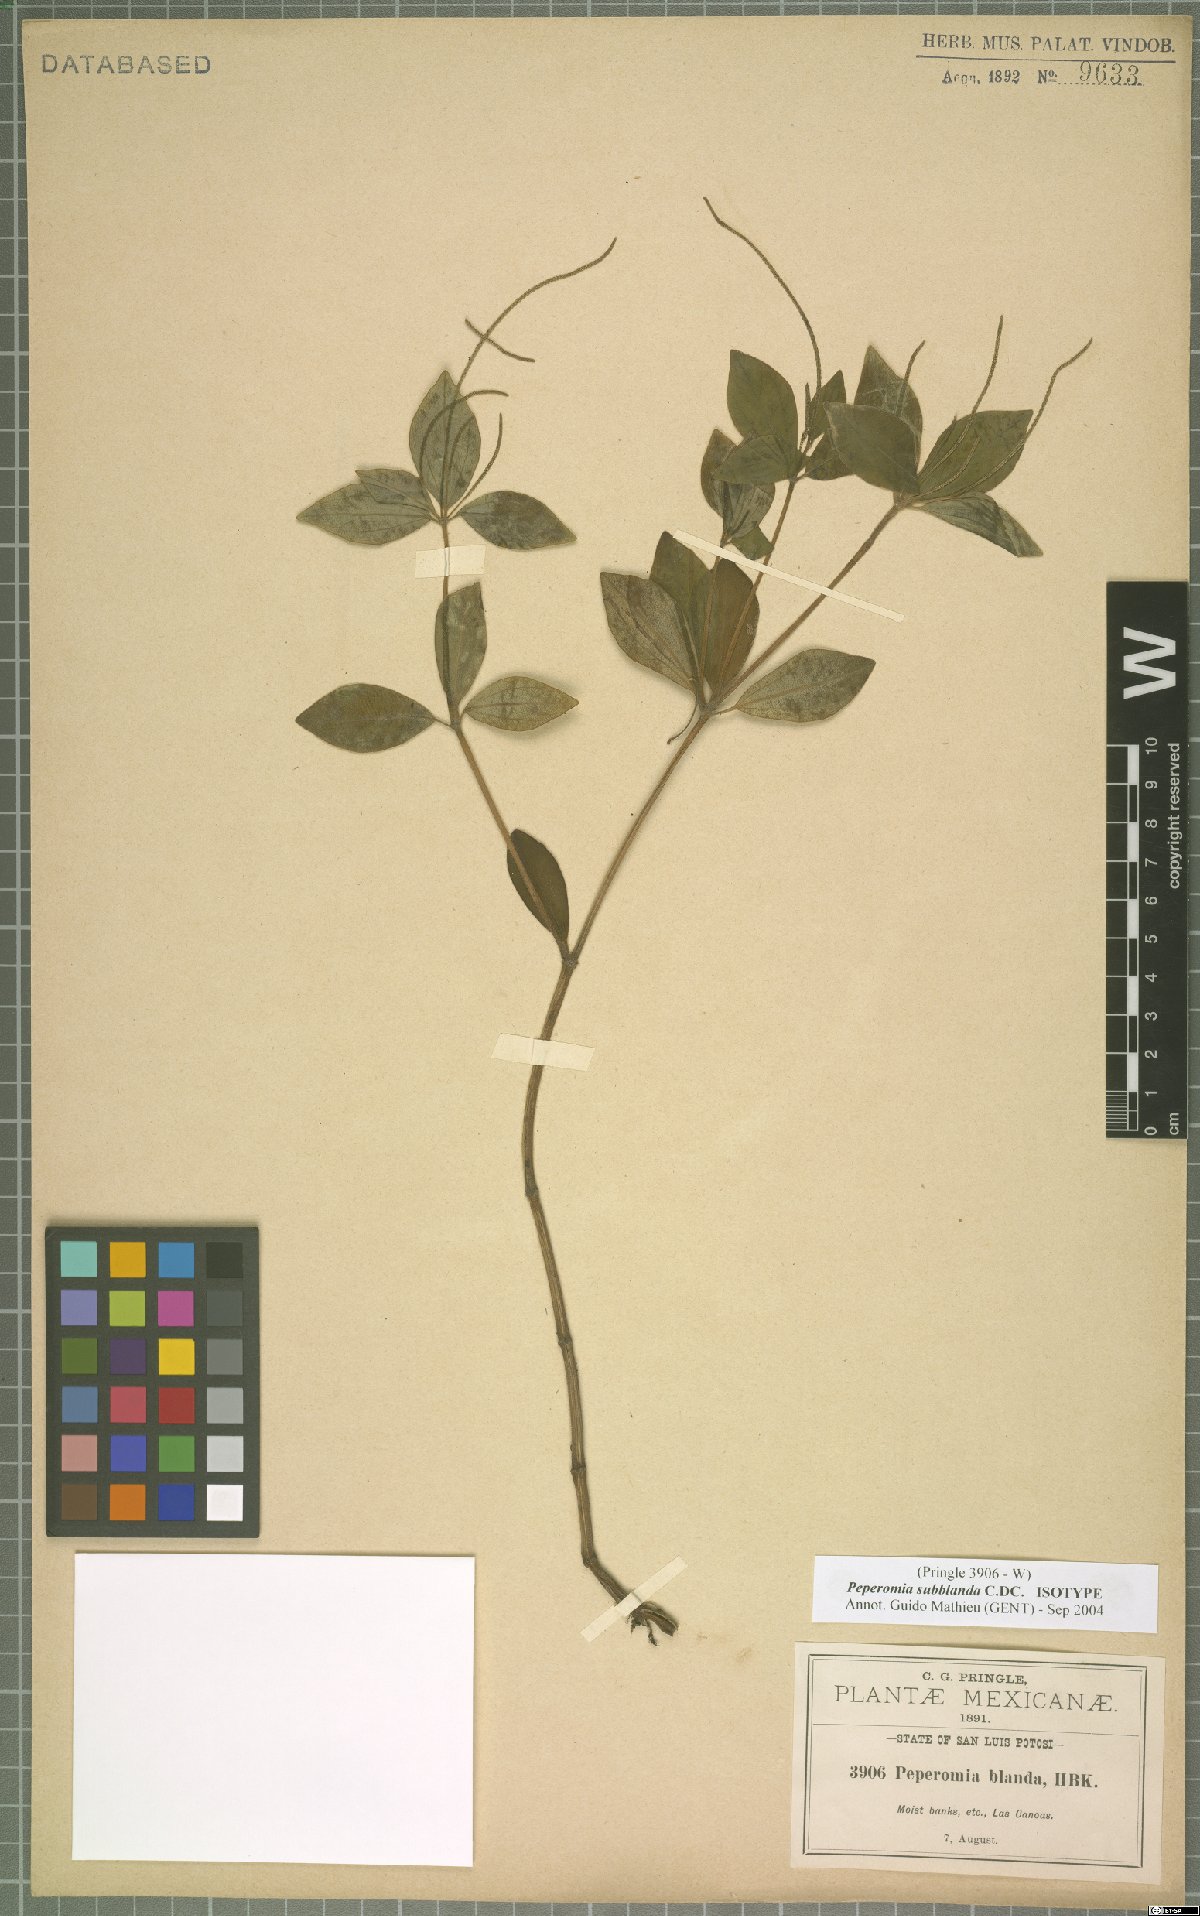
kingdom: Plantae
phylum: Tracheophyta
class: Magnoliopsida
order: Piperales
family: Piperaceae
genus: Peperomia
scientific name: Peperomia subblanda
